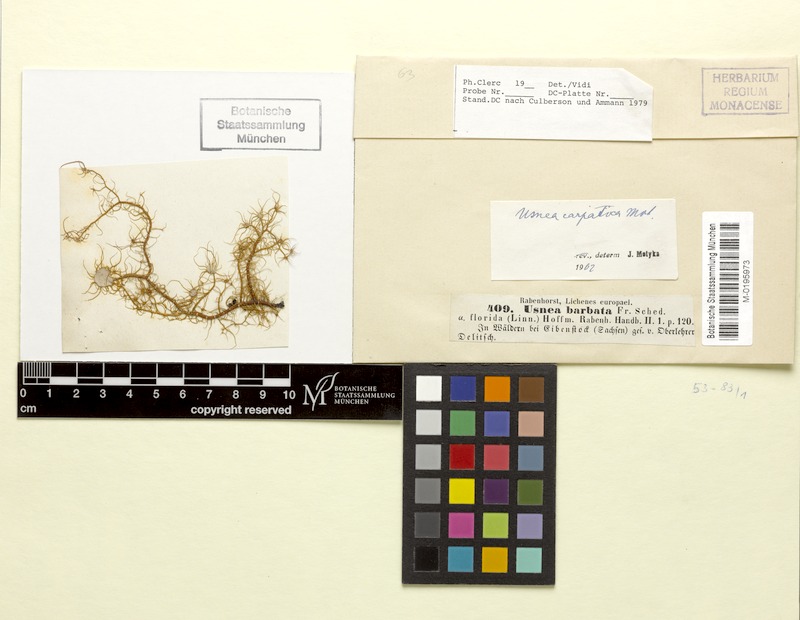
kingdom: Fungi
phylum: Ascomycota
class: Lecanoromycetes
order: Lecanorales
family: Parmeliaceae
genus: Usnea
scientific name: Usnea intermedia
